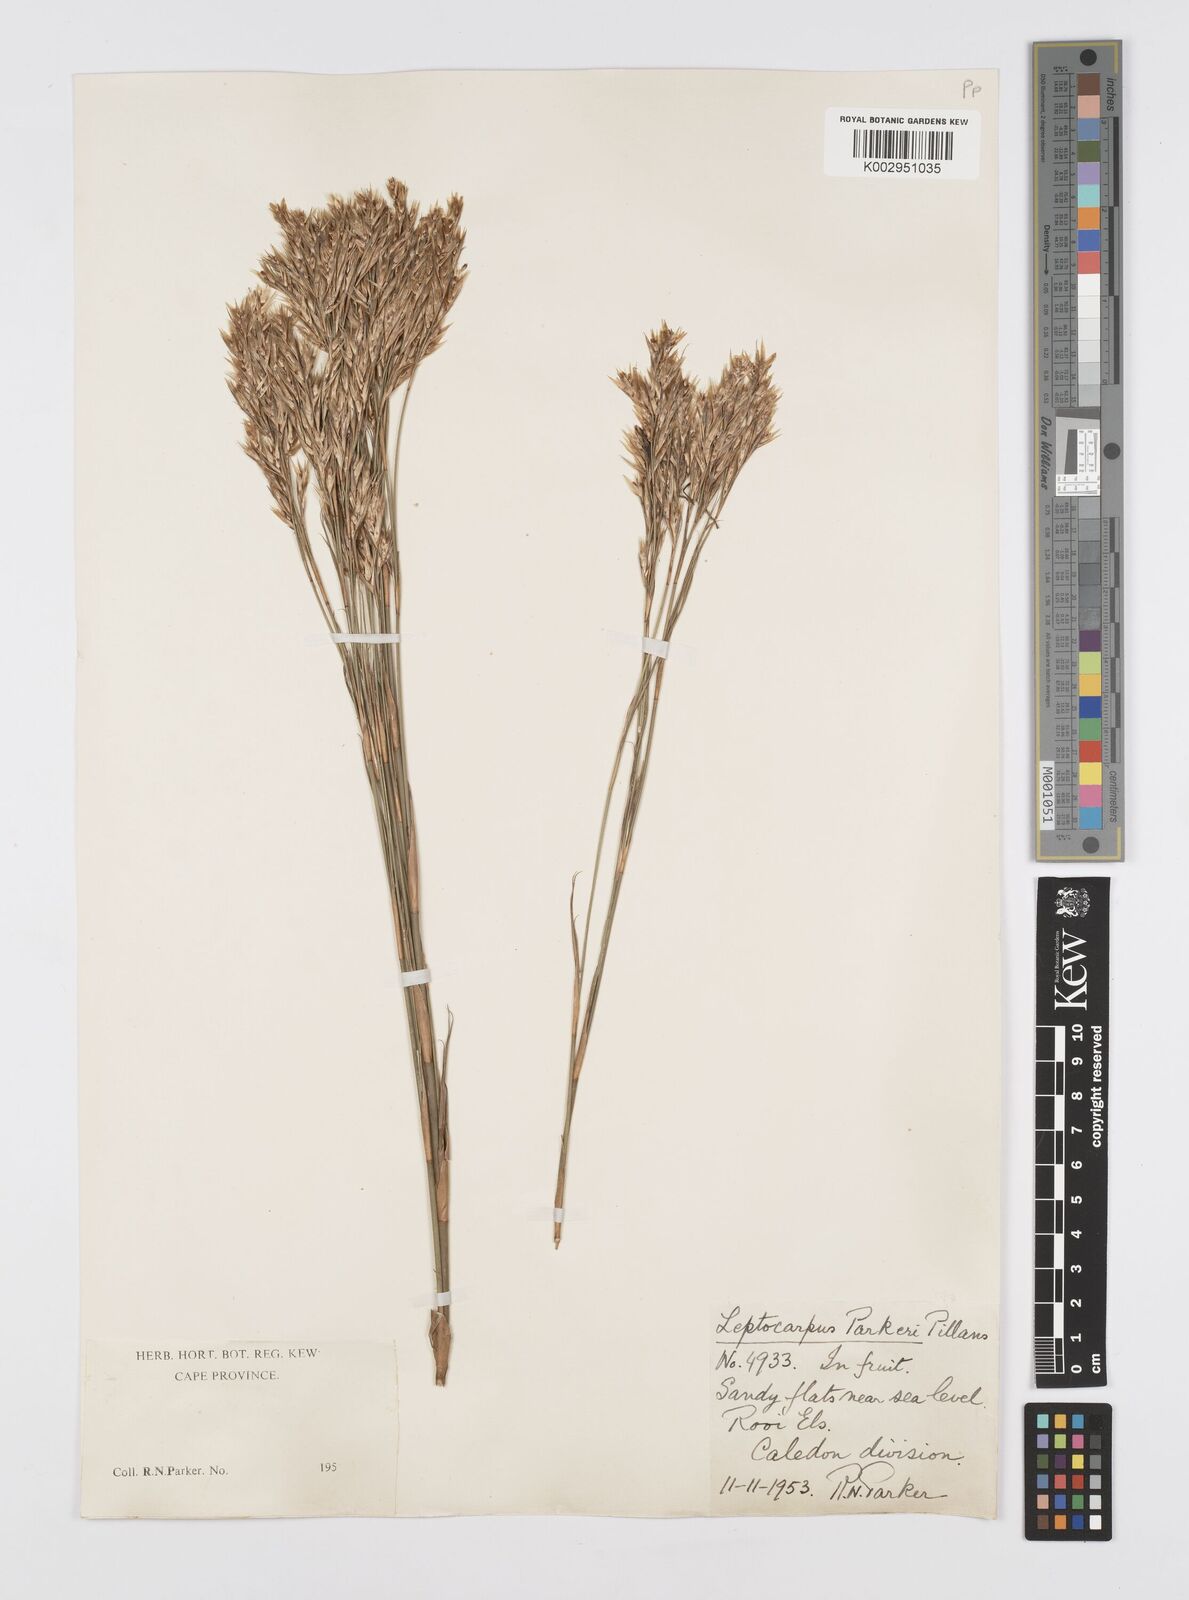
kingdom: Plantae
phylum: Tracheophyta
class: Liliopsida
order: Poales
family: Restionaceae
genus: Restio
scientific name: Restio festuciformis
